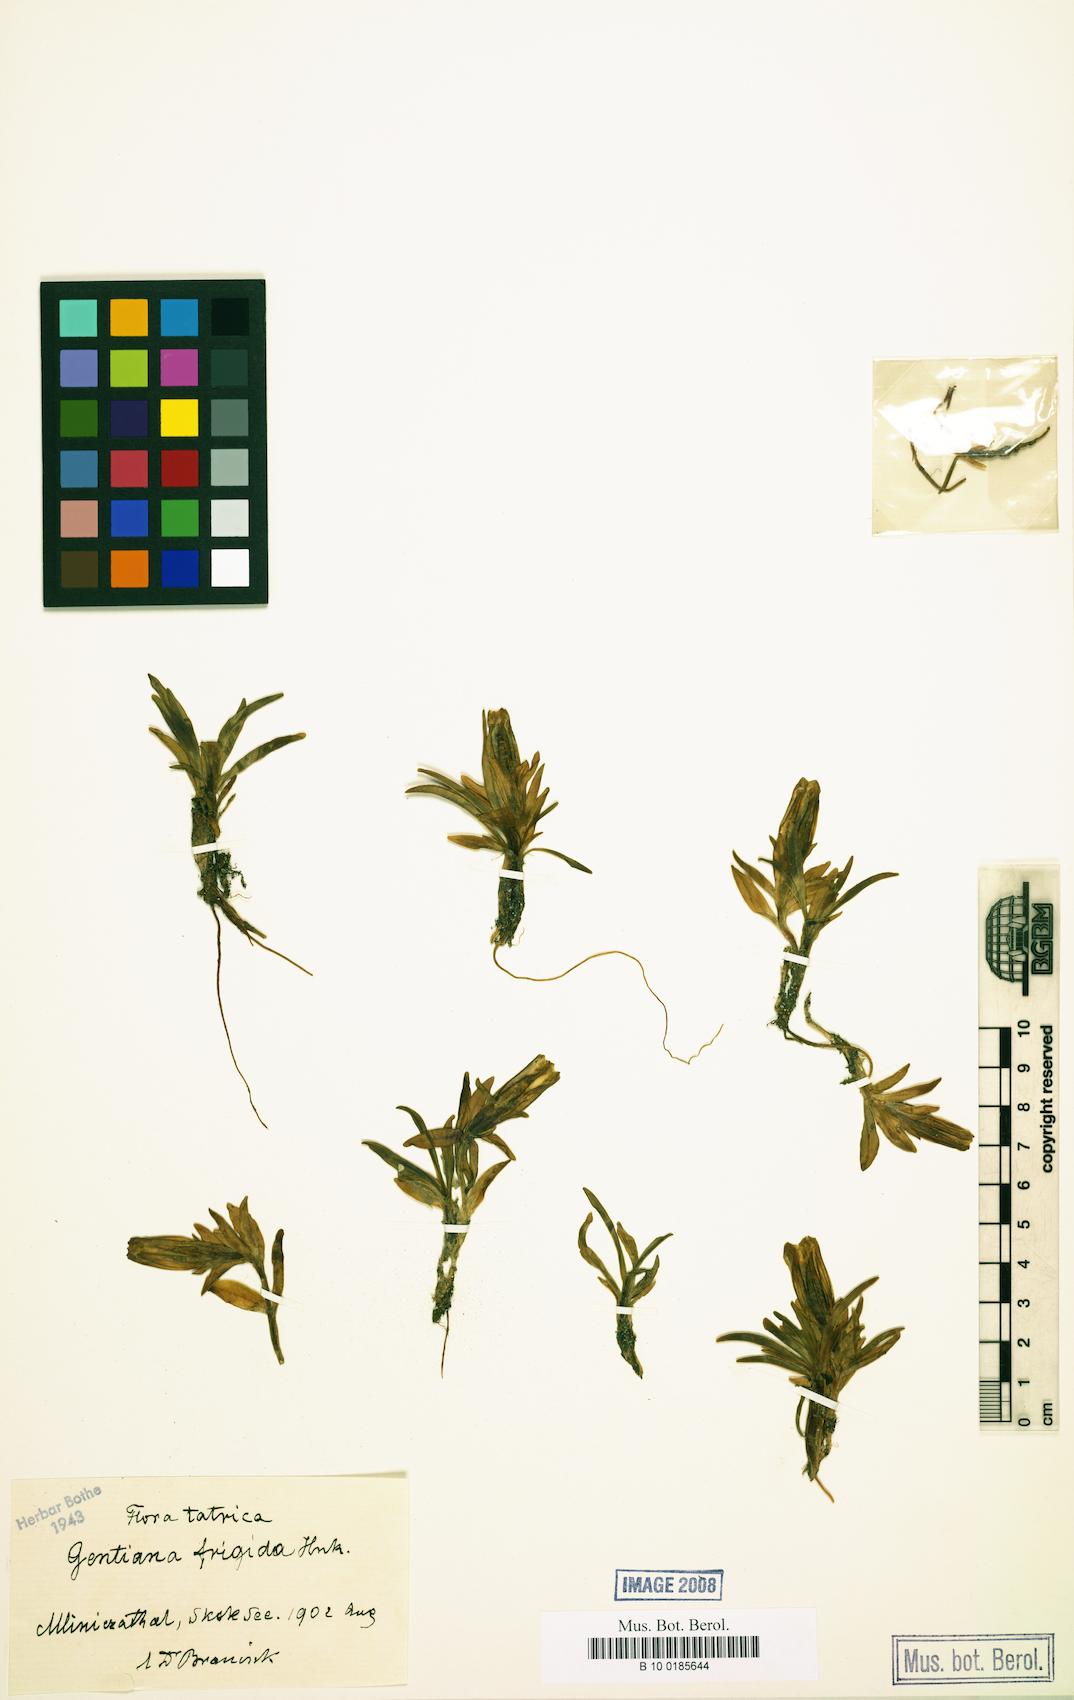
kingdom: Plantae
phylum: Tracheophyta
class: Magnoliopsida
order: Gentianales
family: Gentianaceae
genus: Gentiana
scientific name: Gentiana frigida
